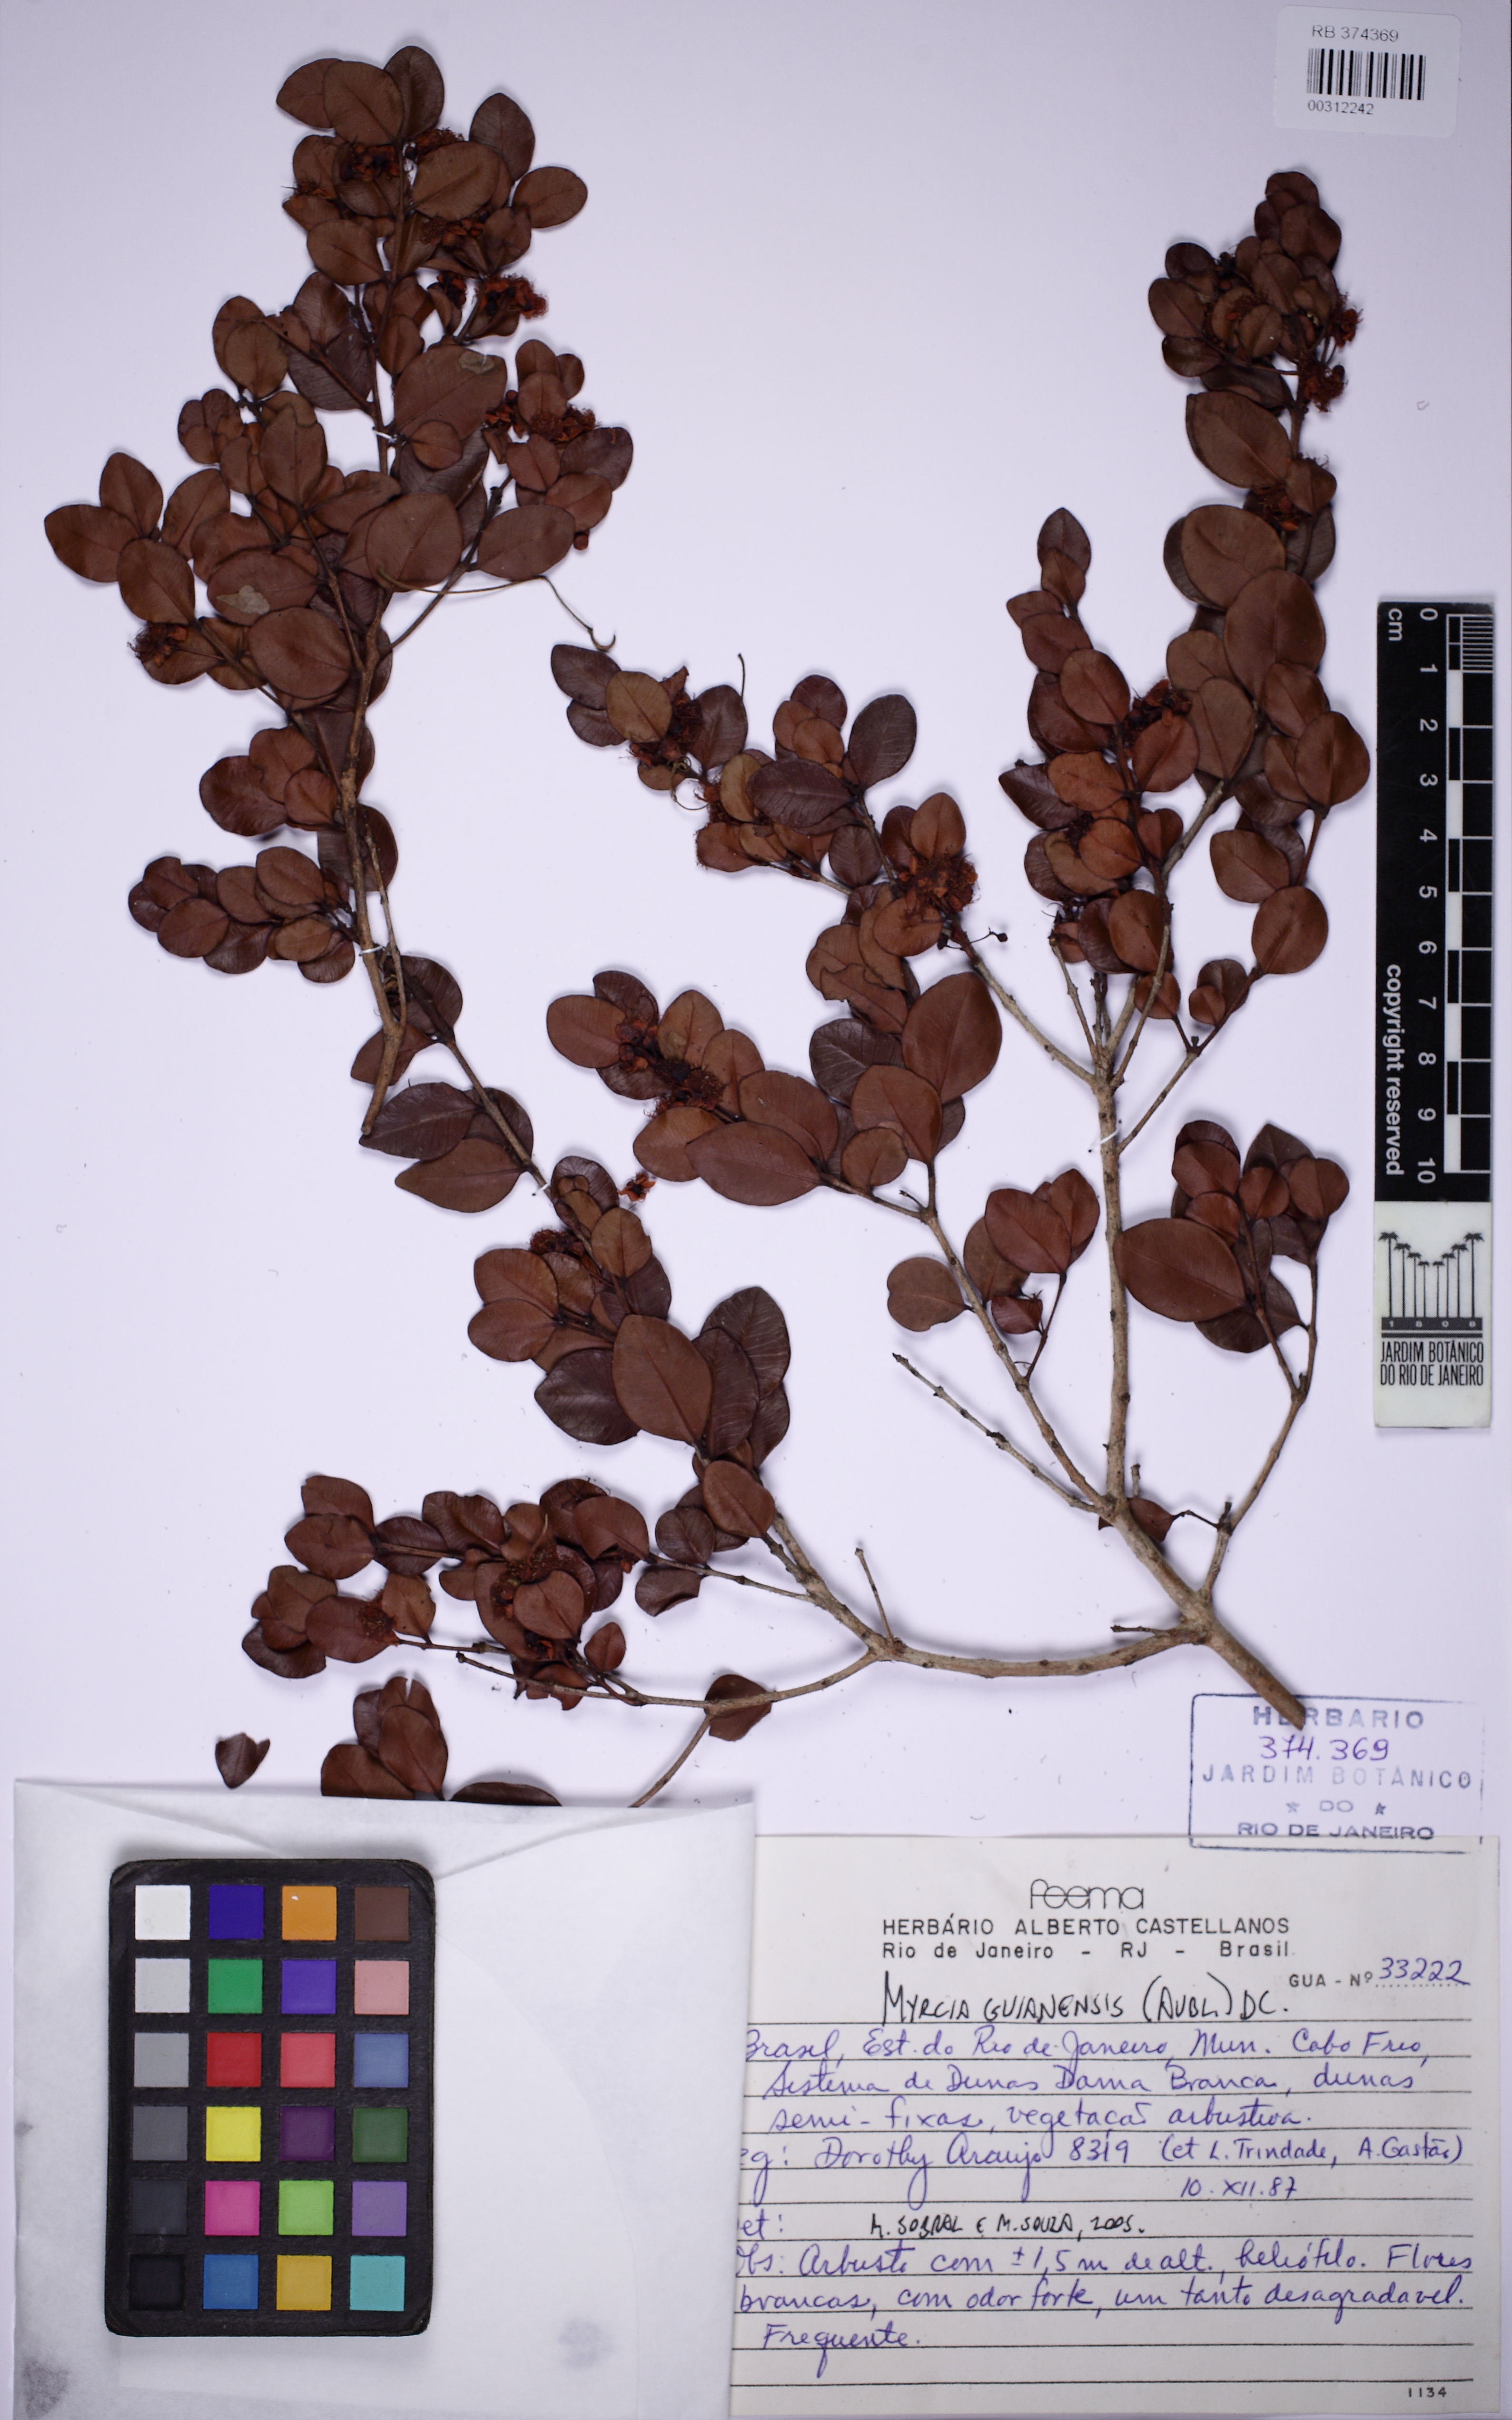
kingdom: Plantae
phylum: Tracheophyta
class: Magnoliopsida
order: Myrtales
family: Myrtaceae
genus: Myrcia
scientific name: Myrcia guianensis
